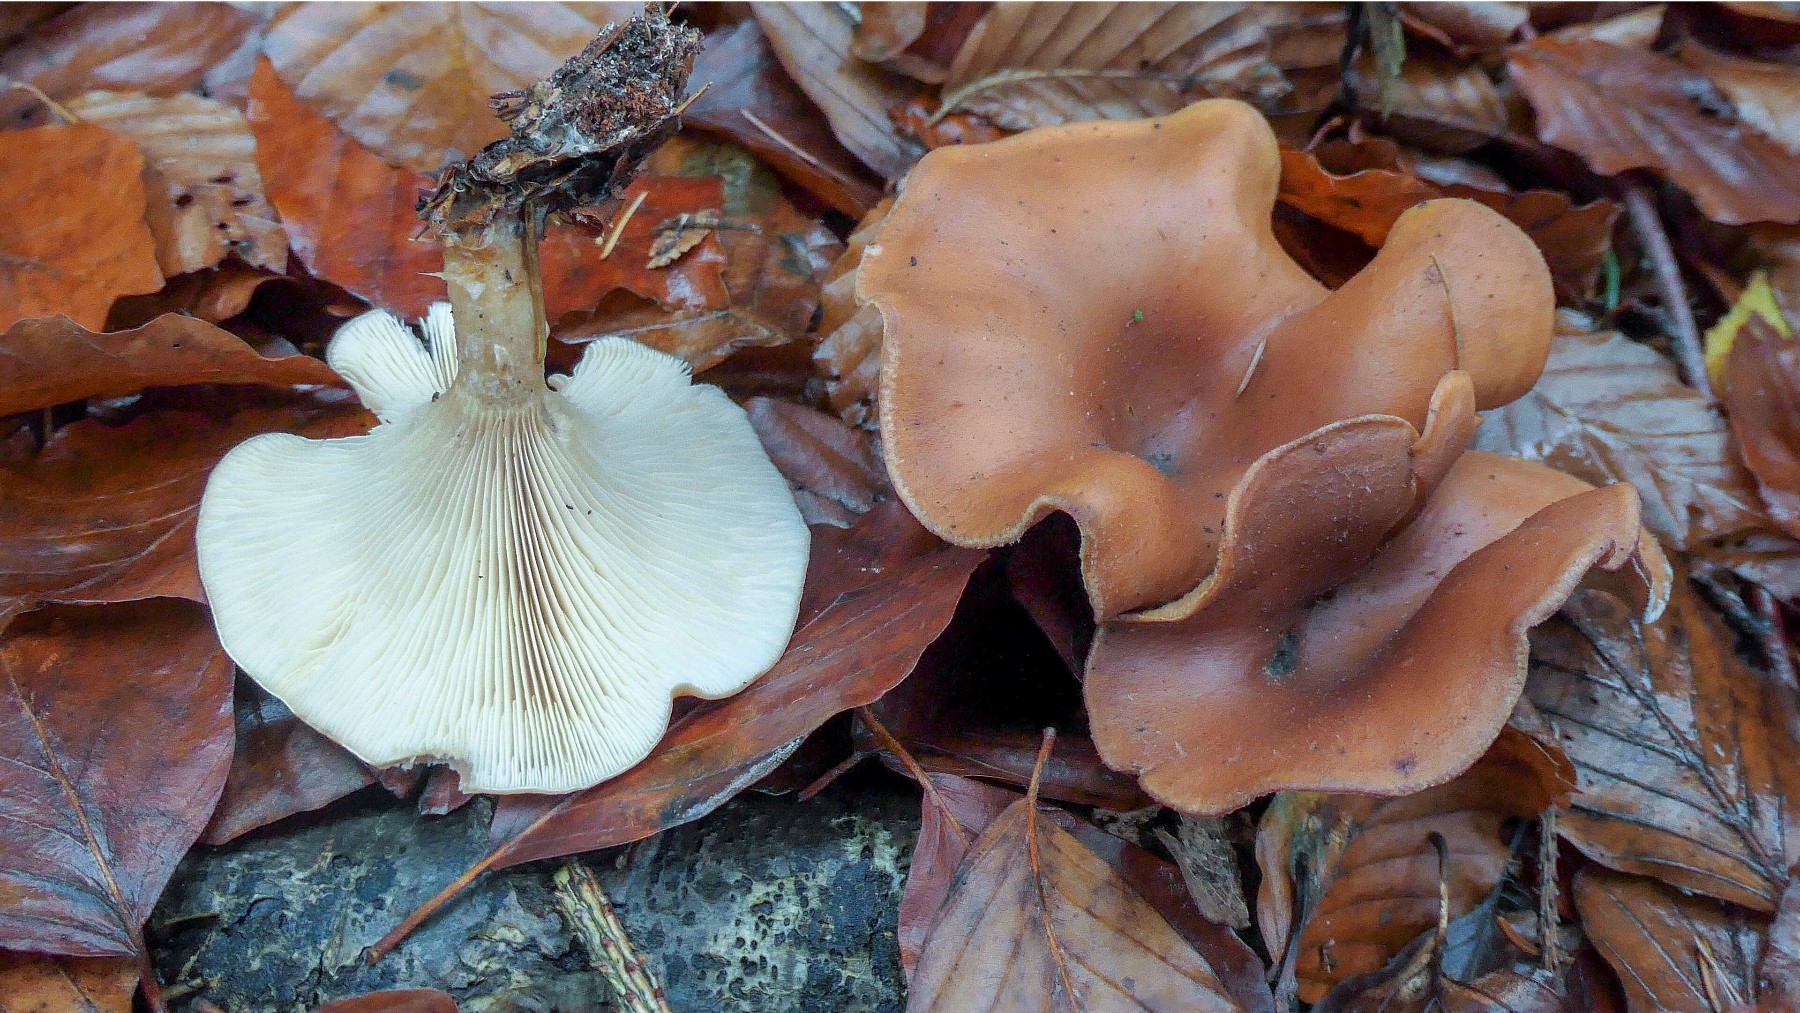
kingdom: Fungi
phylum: Basidiomycota
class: Agaricomycetes
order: Agaricales
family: Tricholomataceae
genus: Paralepista
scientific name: Paralepista flaccida
